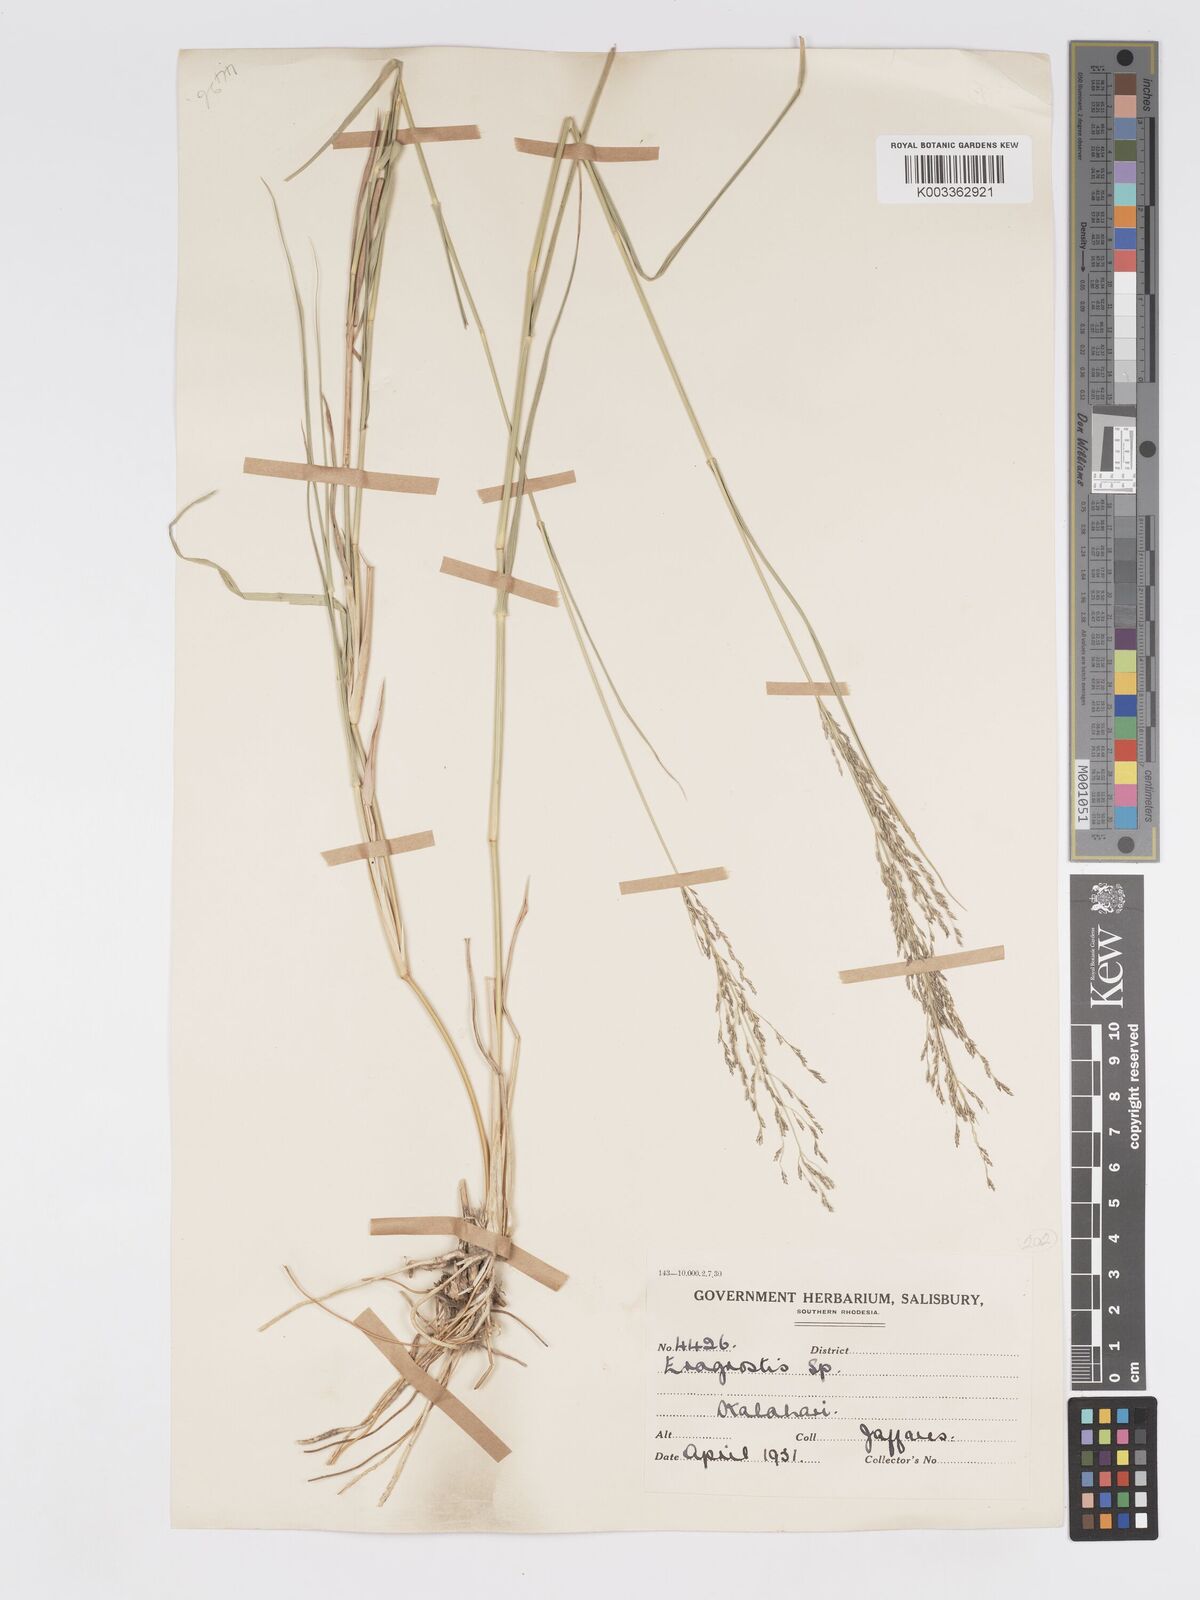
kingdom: Plantae
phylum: Tracheophyta
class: Liliopsida
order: Poales
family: Poaceae
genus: Eragrostis
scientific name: Eragrostis cylindriflora
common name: Cylinderflower lovegrass
